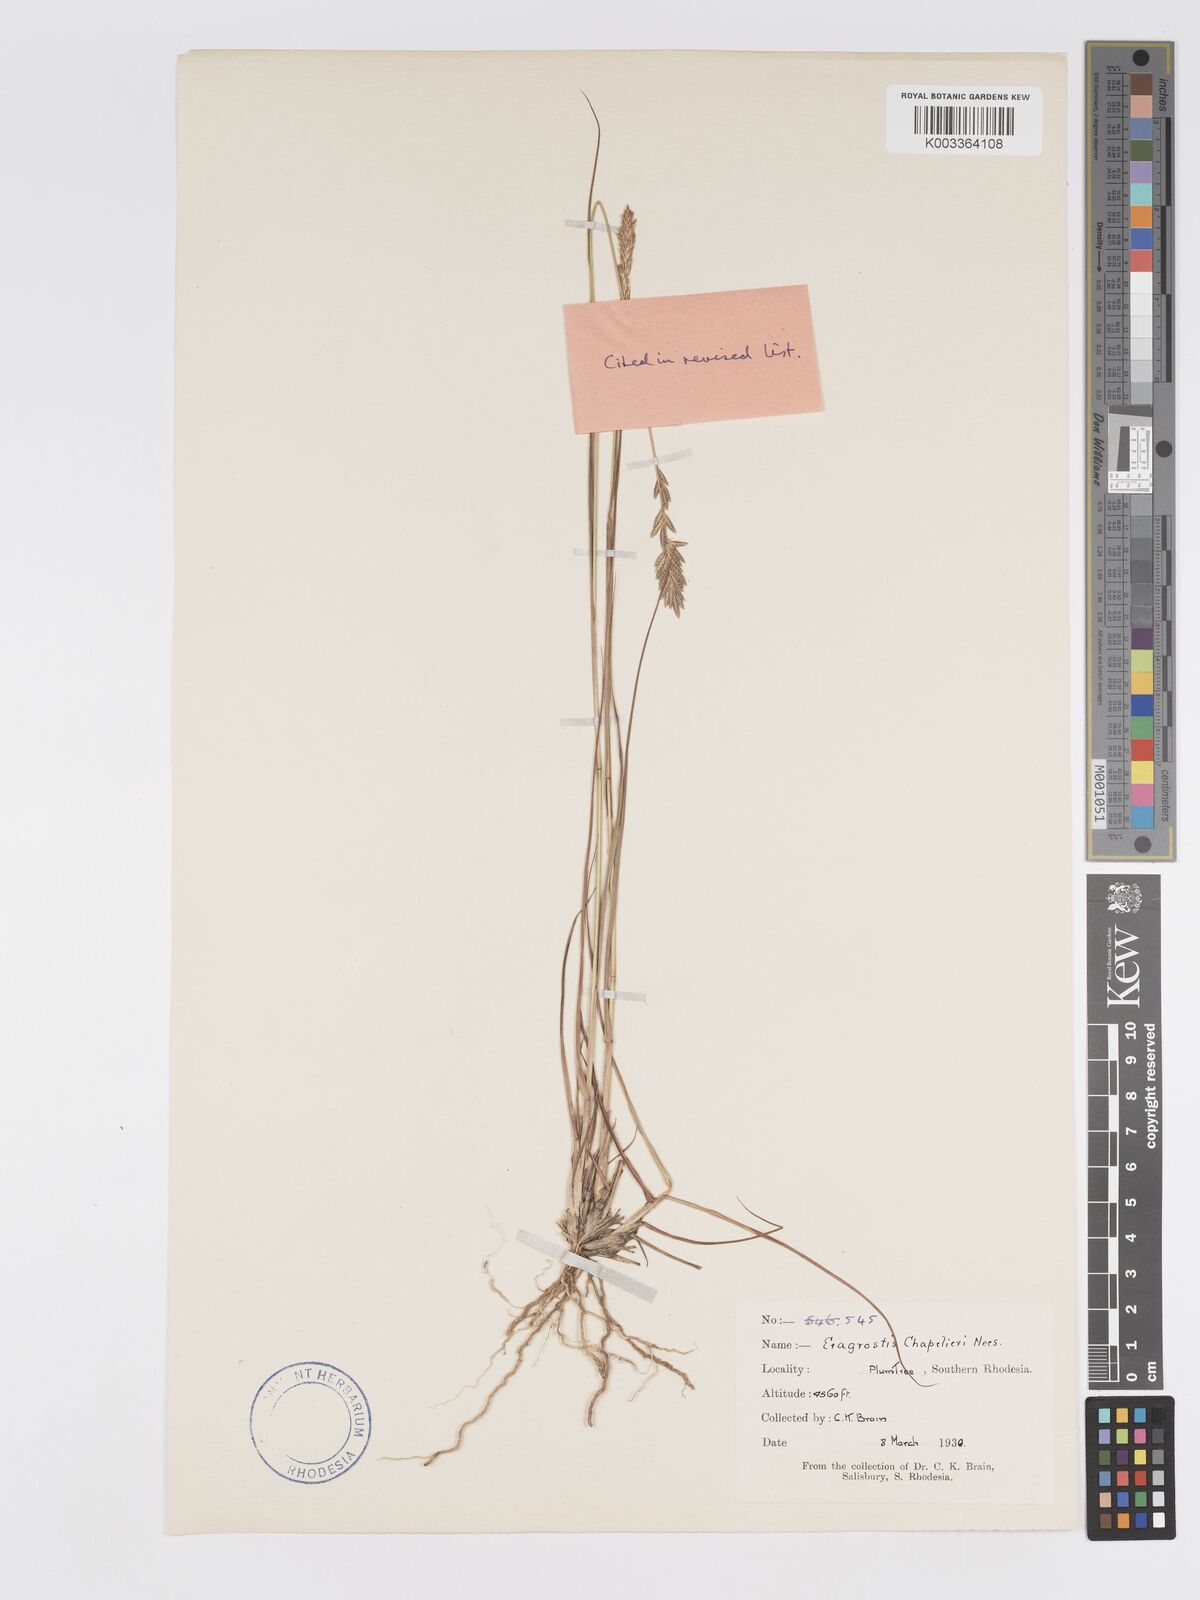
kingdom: Plantae
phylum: Tracheophyta
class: Liliopsida
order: Poales
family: Poaceae
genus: Eragrostis
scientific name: Eragrostis chapelieri
